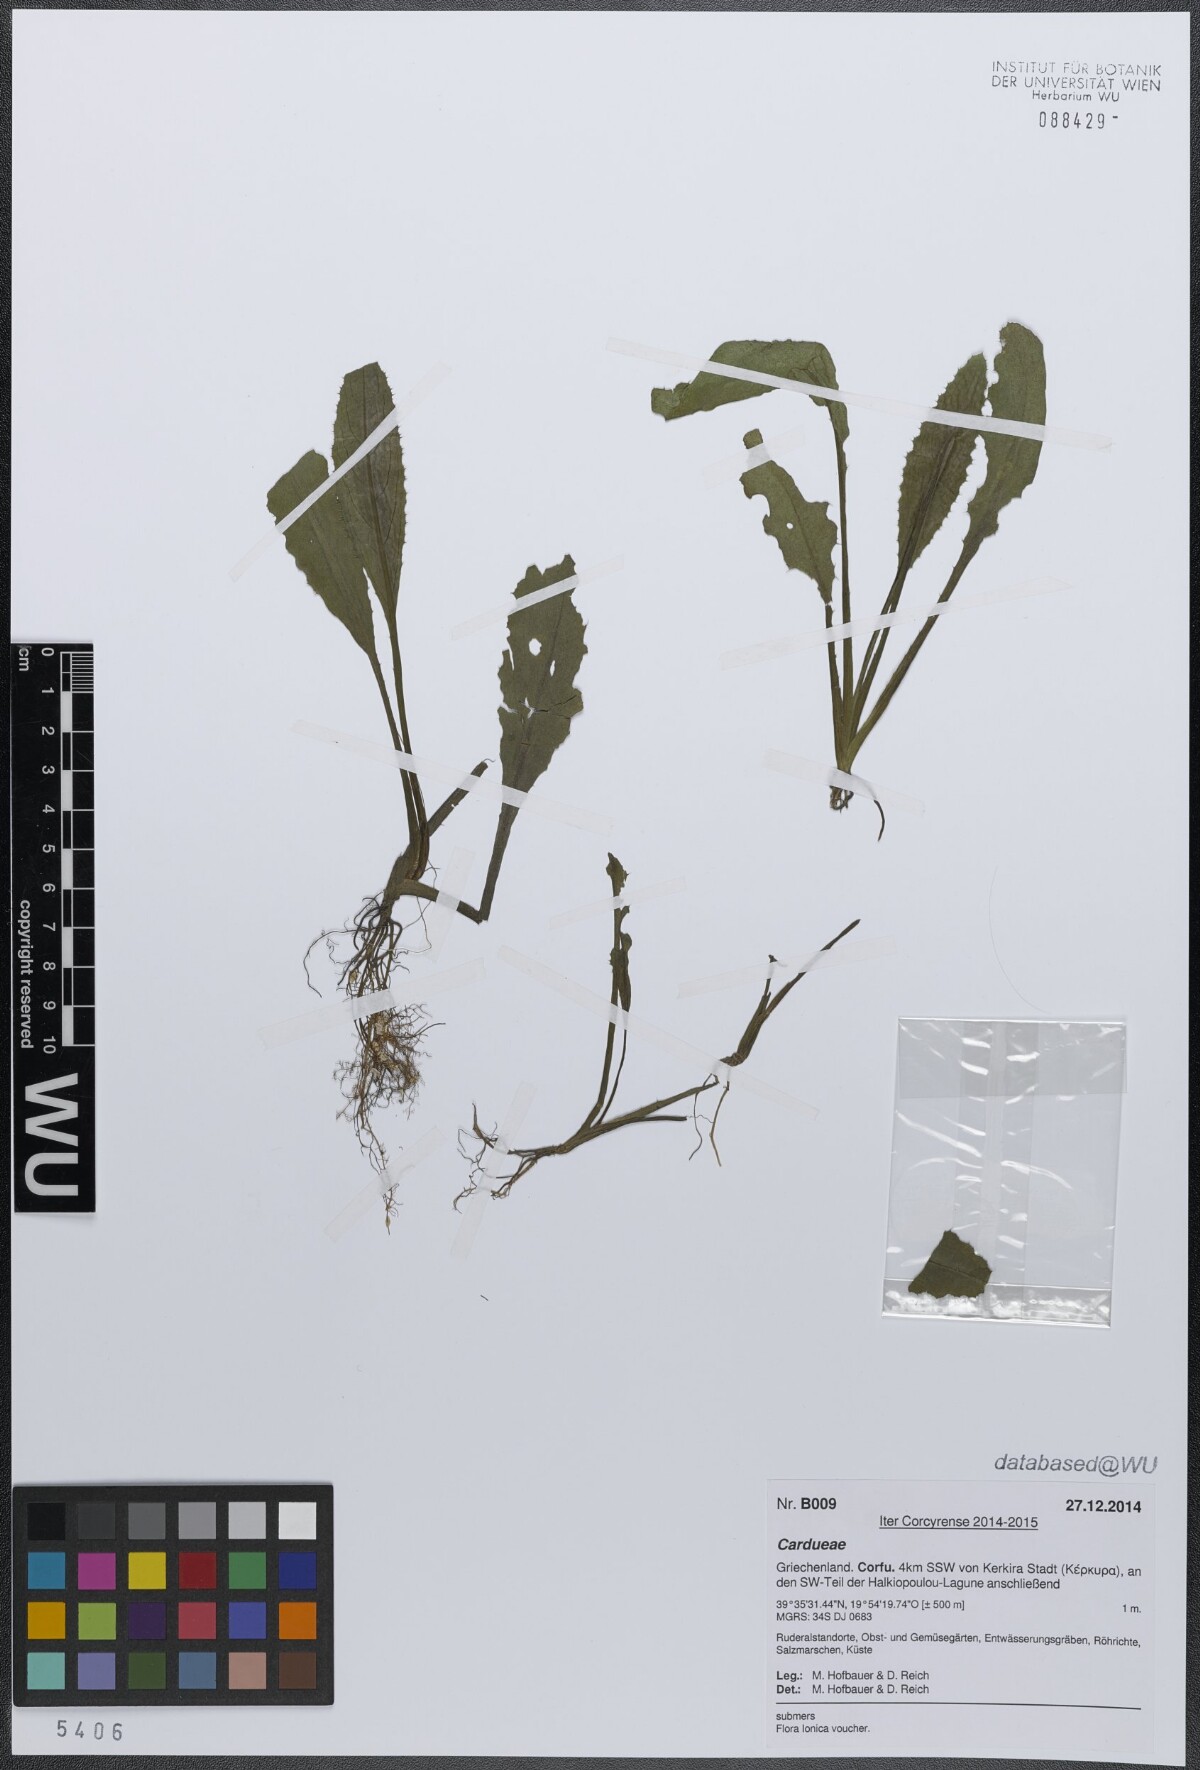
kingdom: Plantae
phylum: Tracheophyta
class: Magnoliopsida
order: Asterales
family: Asteraceae
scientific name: Asteraceae
